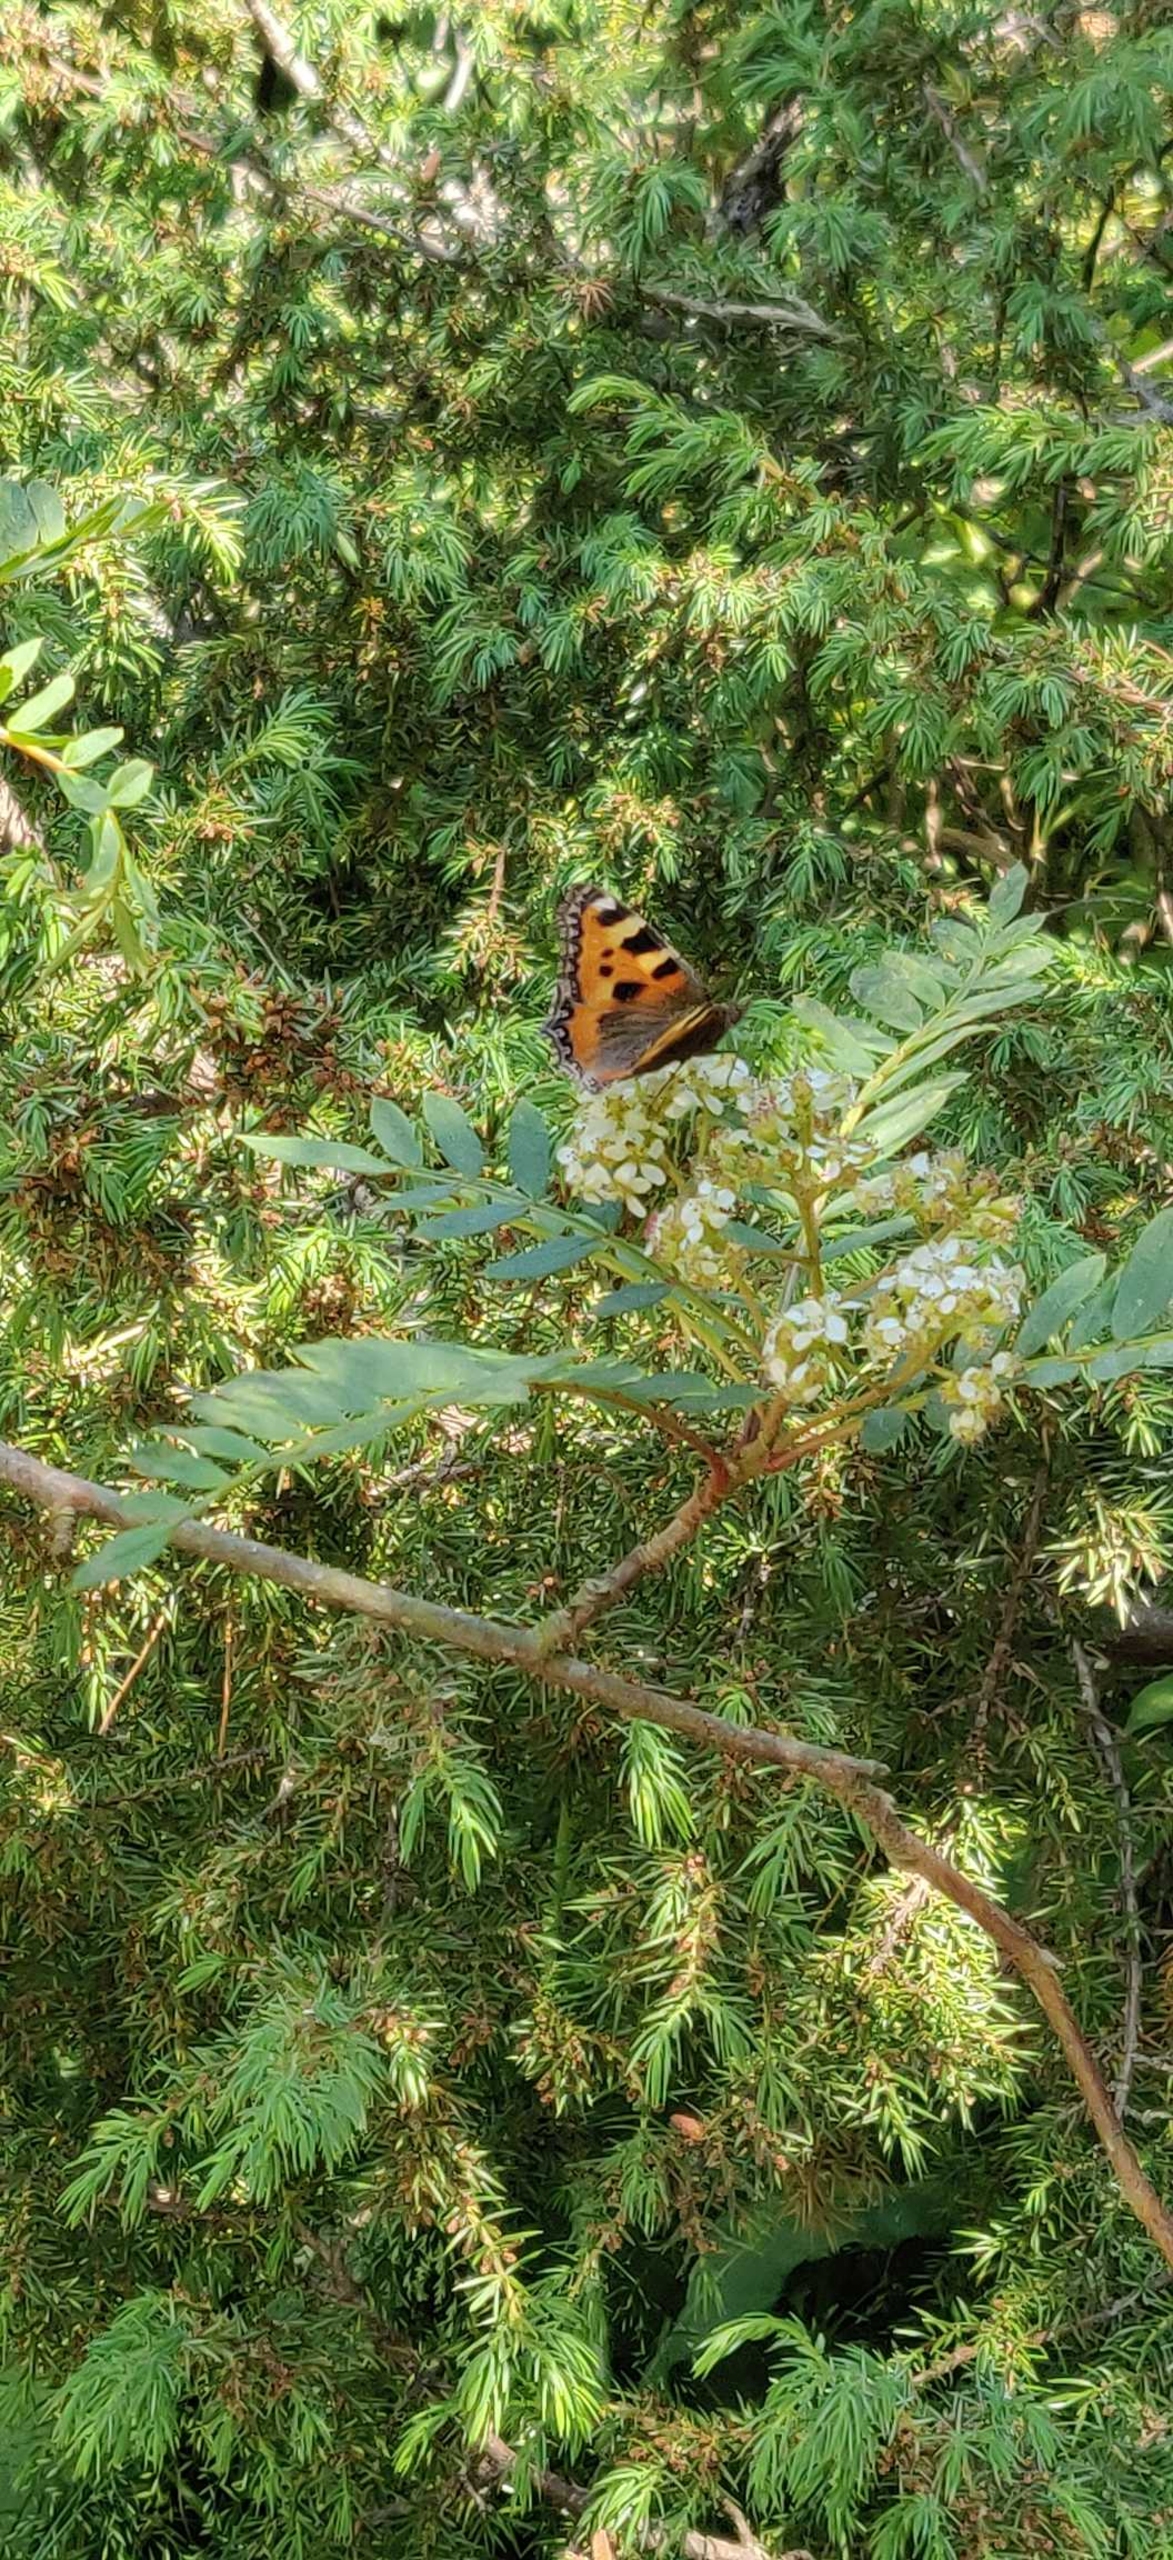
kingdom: Animalia
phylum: Arthropoda
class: Insecta
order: Lepidoptera
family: Nymphalidae
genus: Aglais
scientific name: Aglais urticae
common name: Nældens takvinge
